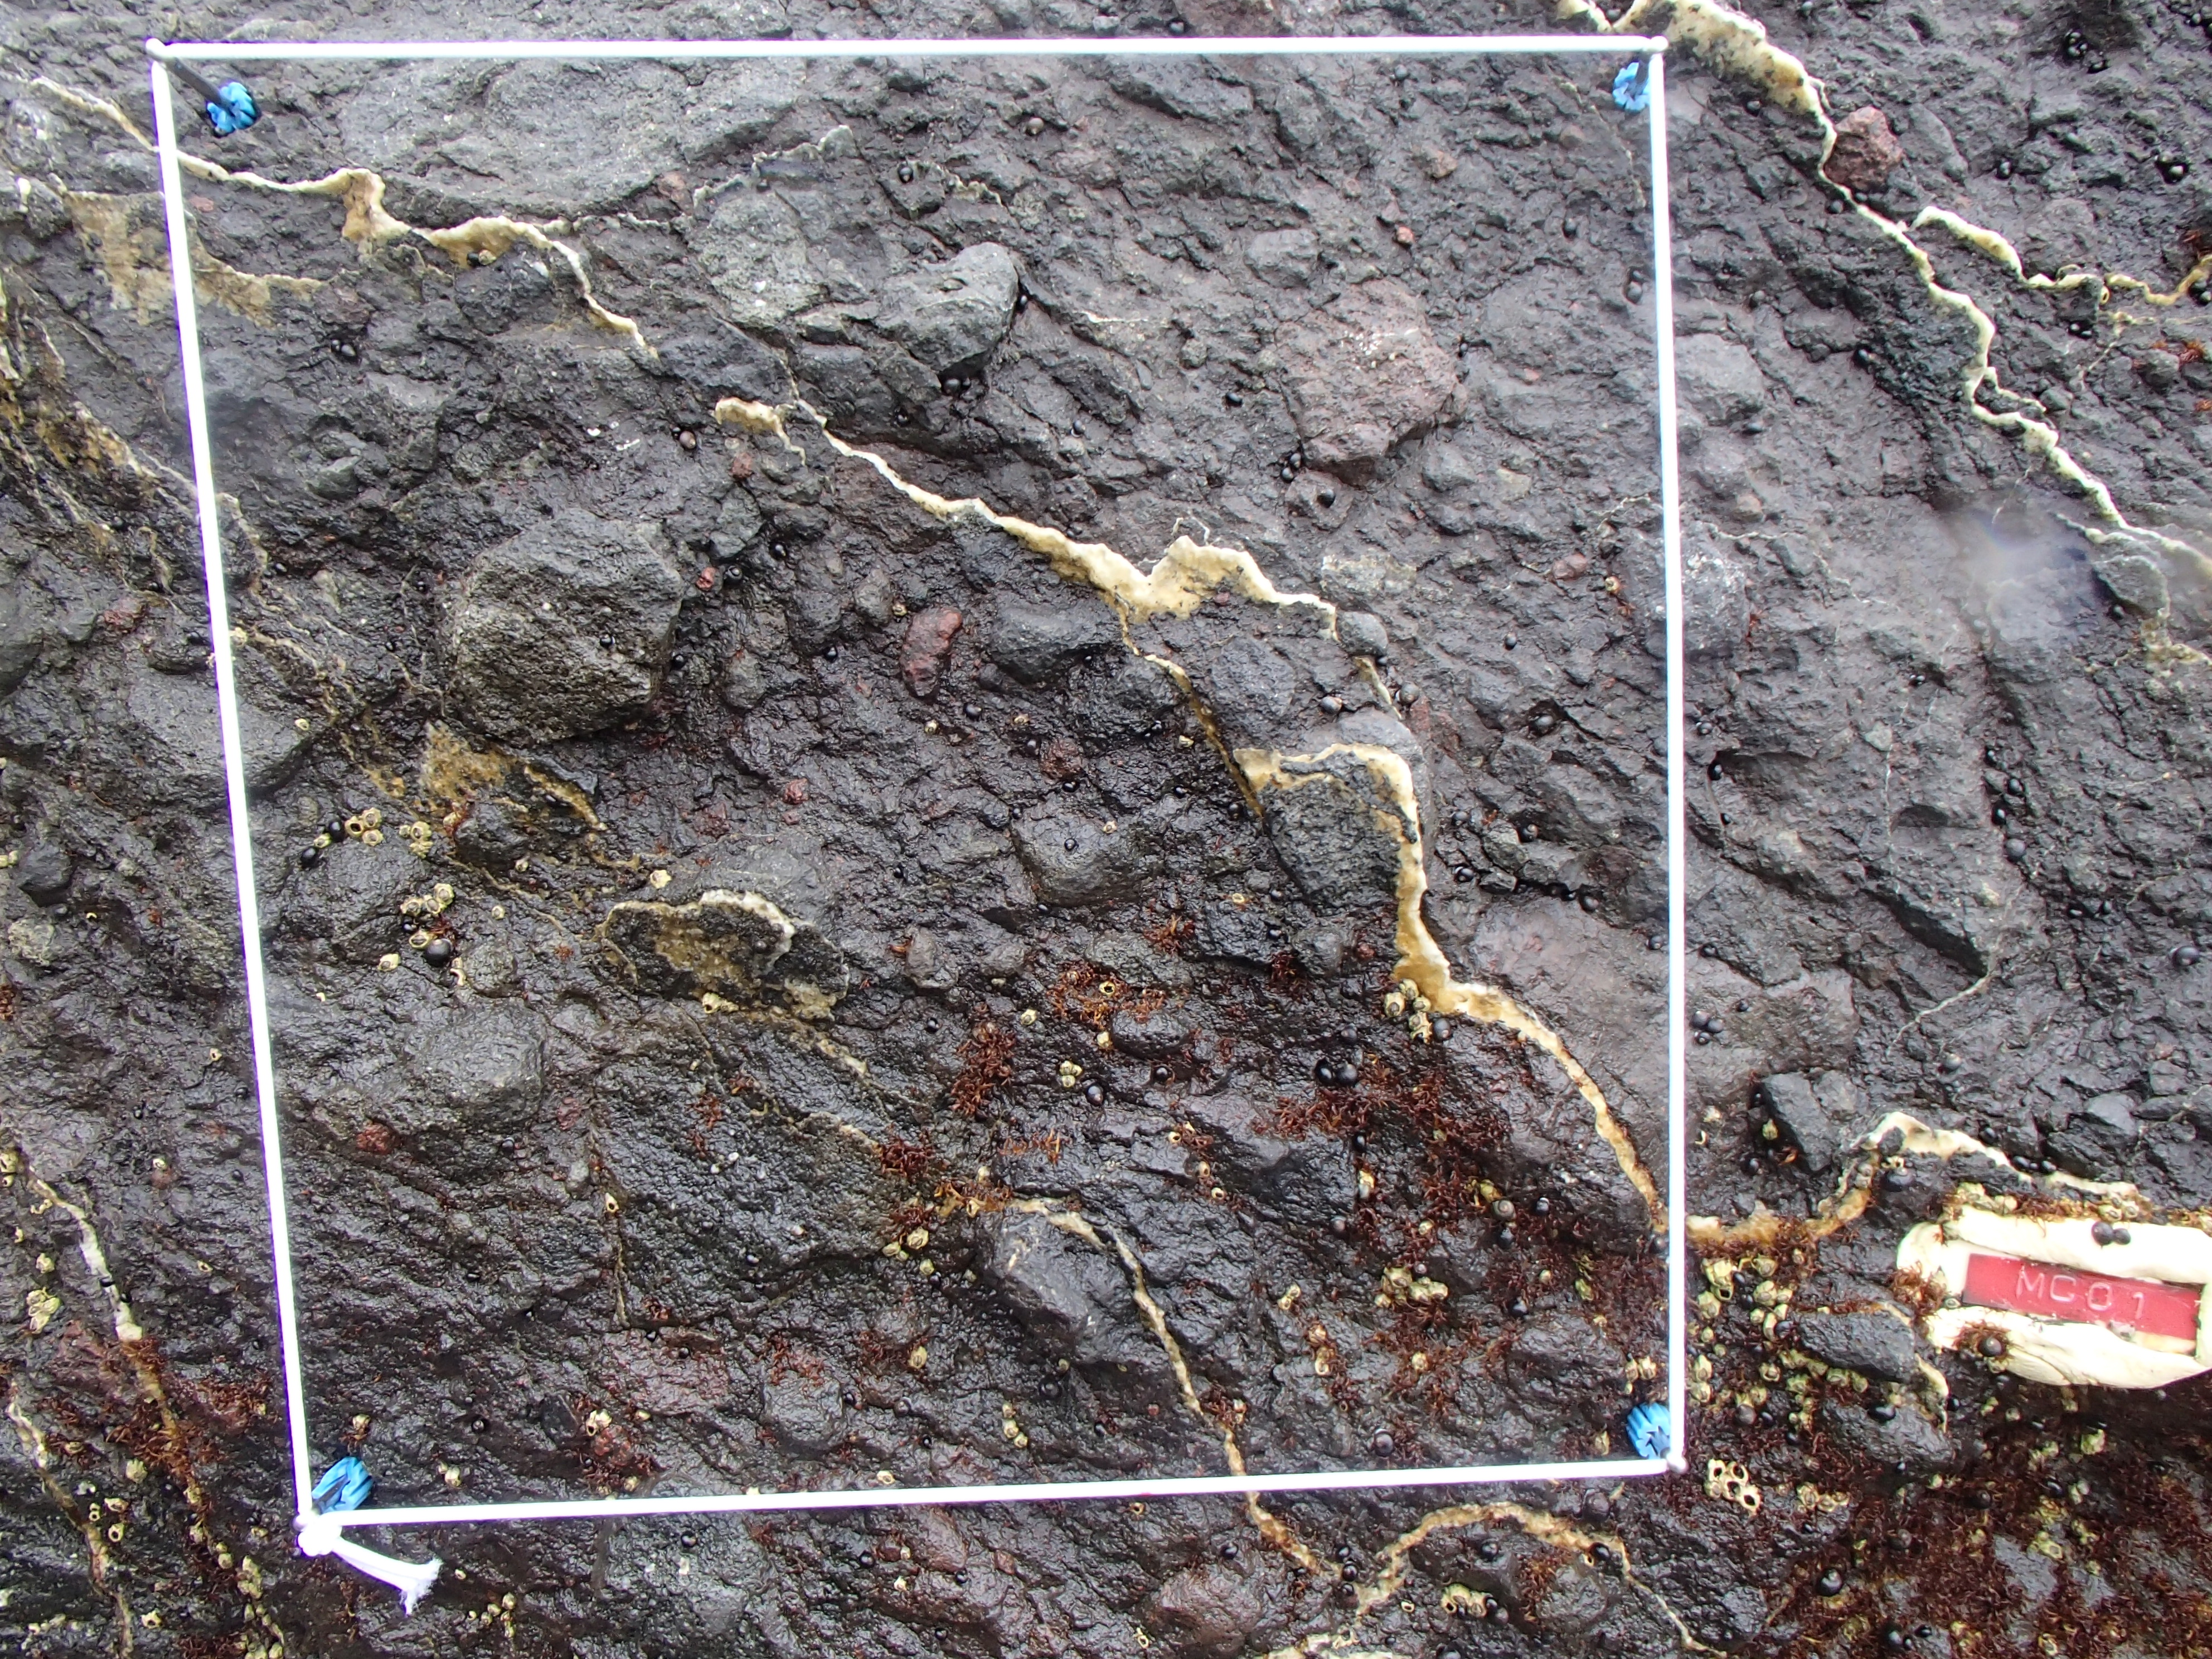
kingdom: Animalia
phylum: Arthropoda
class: Maxillopoda
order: Sessilia
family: Chthamalidae
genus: Chthamalus
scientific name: Chthamalus dalli
